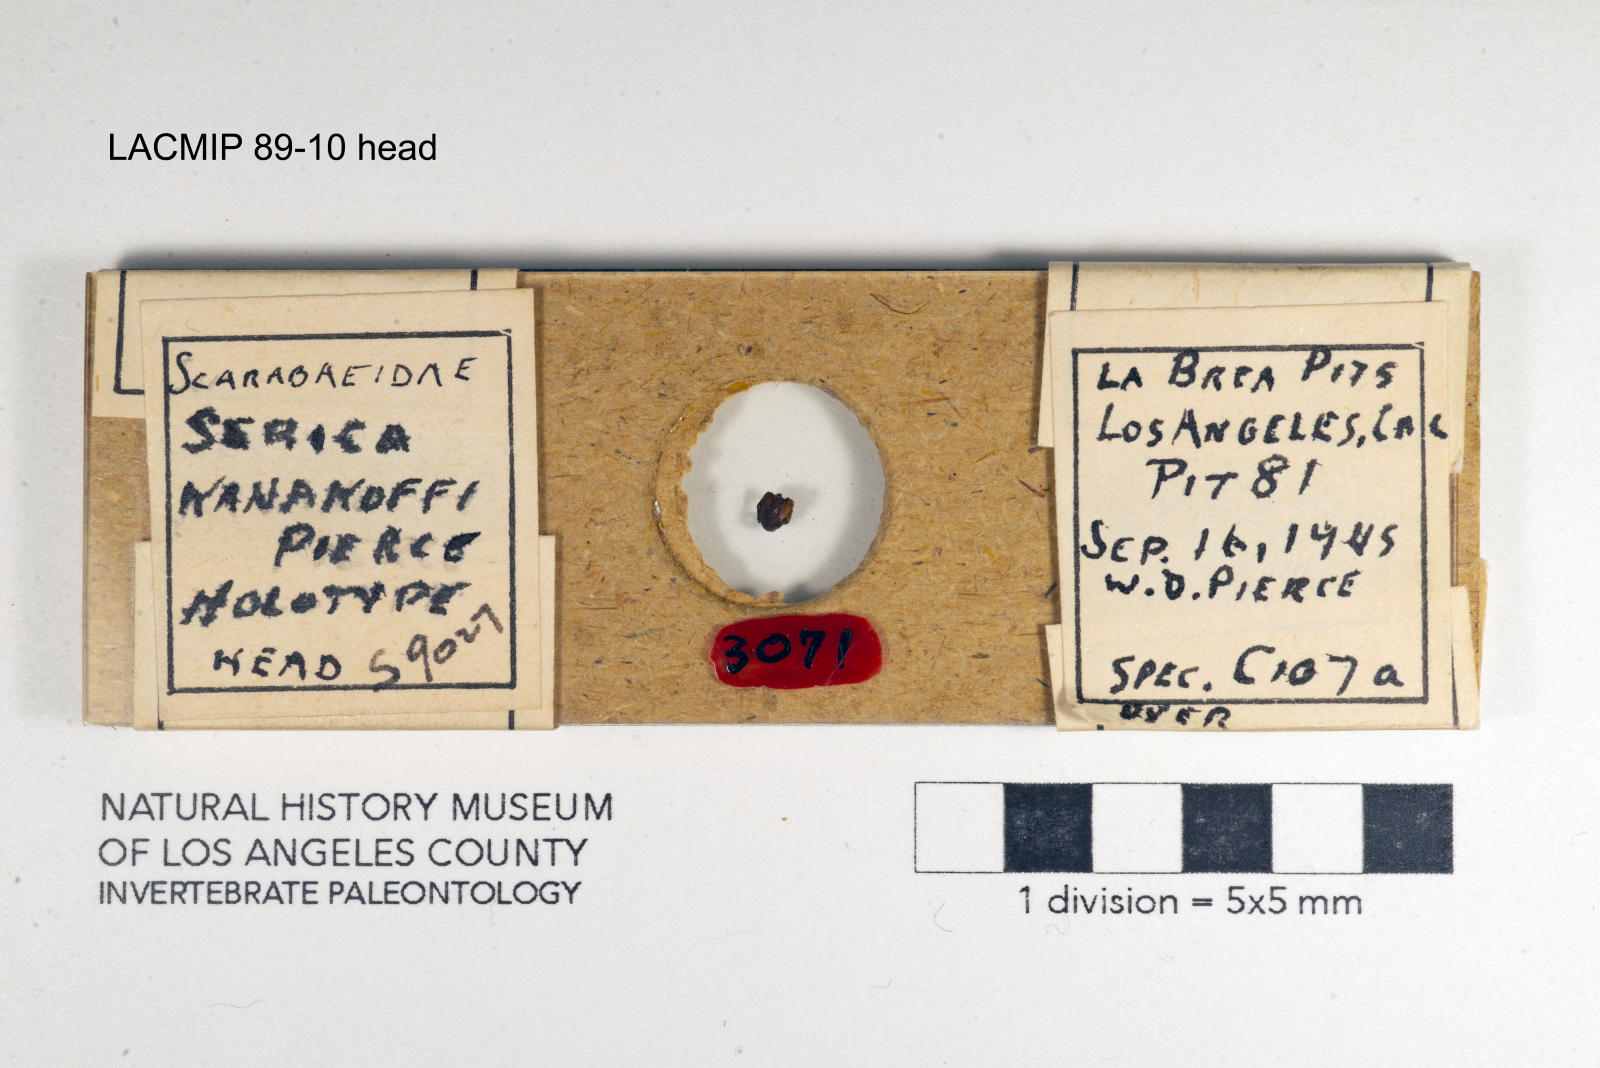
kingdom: Animalia
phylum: Arthropoda
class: Insecta
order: Coleoptera
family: Scarabaeidae
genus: Serica
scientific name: Serica kanakoffi
